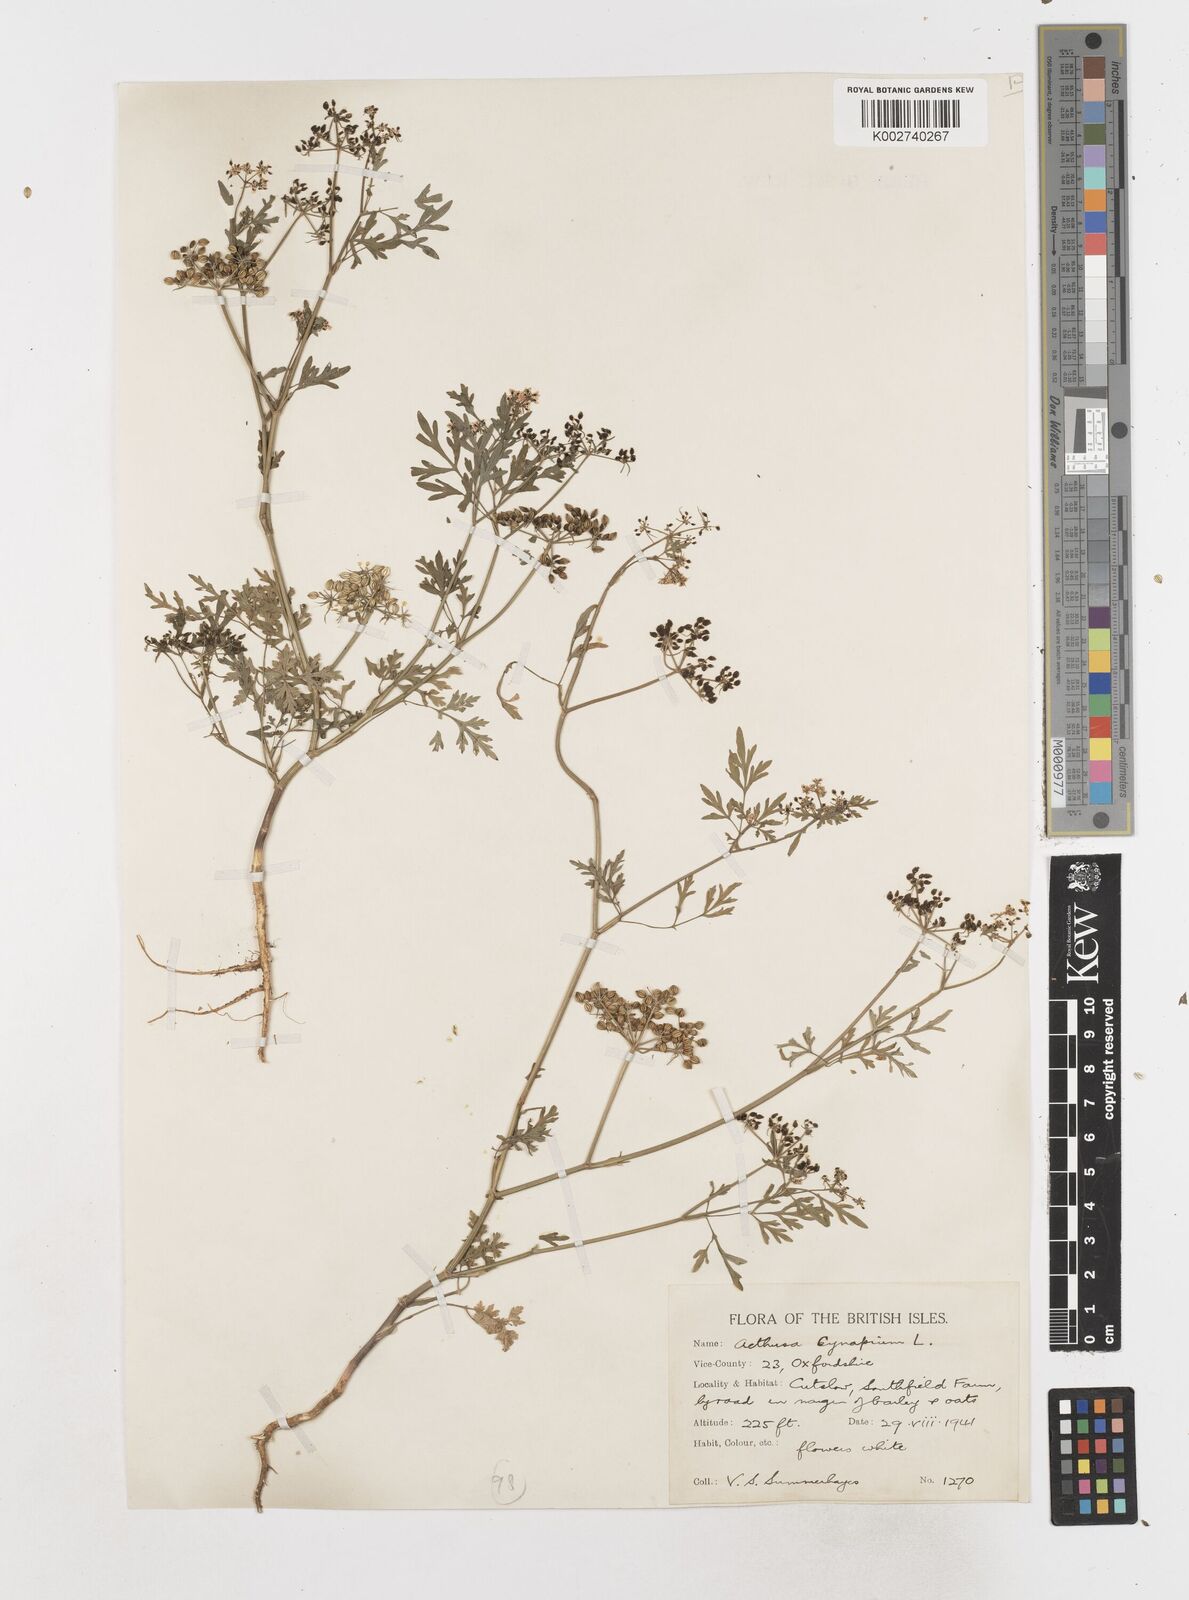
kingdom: Plantae
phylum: Tracheophyta
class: Magnoliopsida
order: Apiales
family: Apiaceae
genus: Aethusa
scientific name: Aethusa cynapium
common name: Fool's parsley
